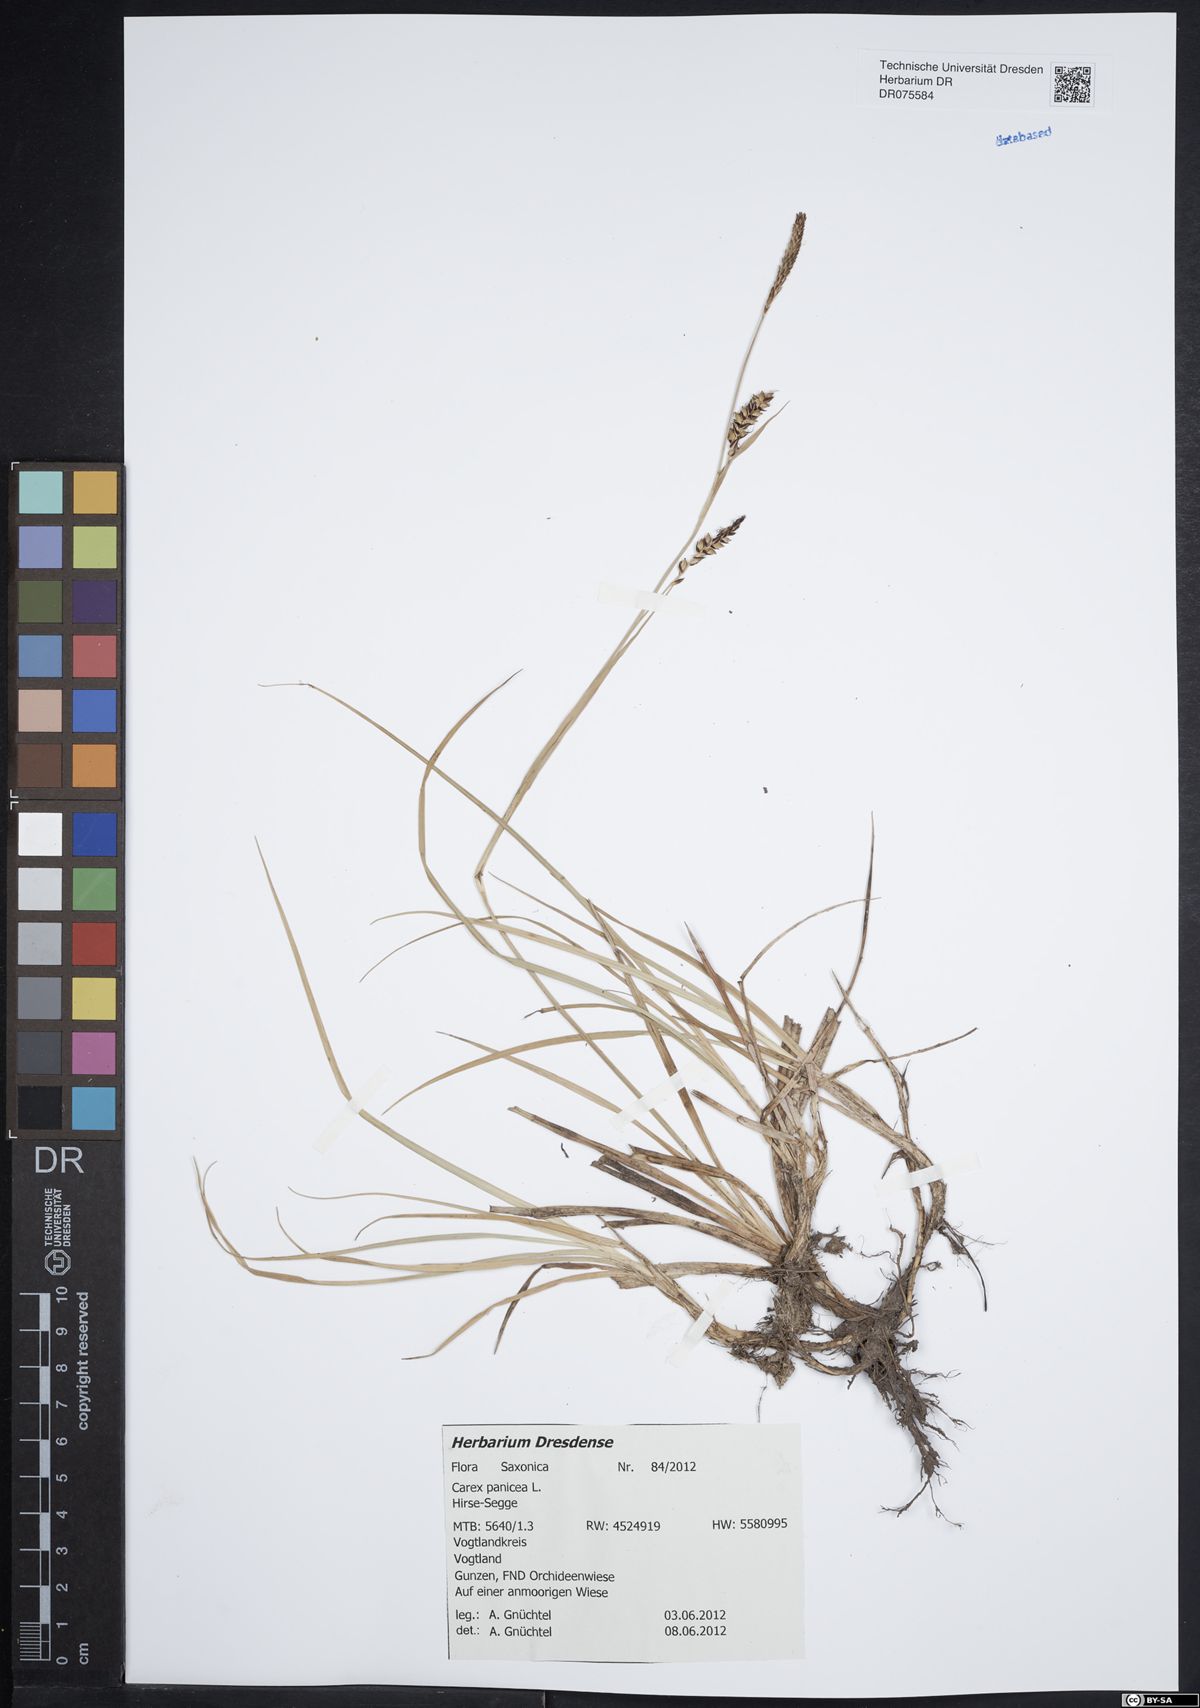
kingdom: Plantae
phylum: Tracheophyta
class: Liliopsida
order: Poales
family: Cyperaceae
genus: Carex
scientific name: Carex panicea
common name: Carnation sedge
